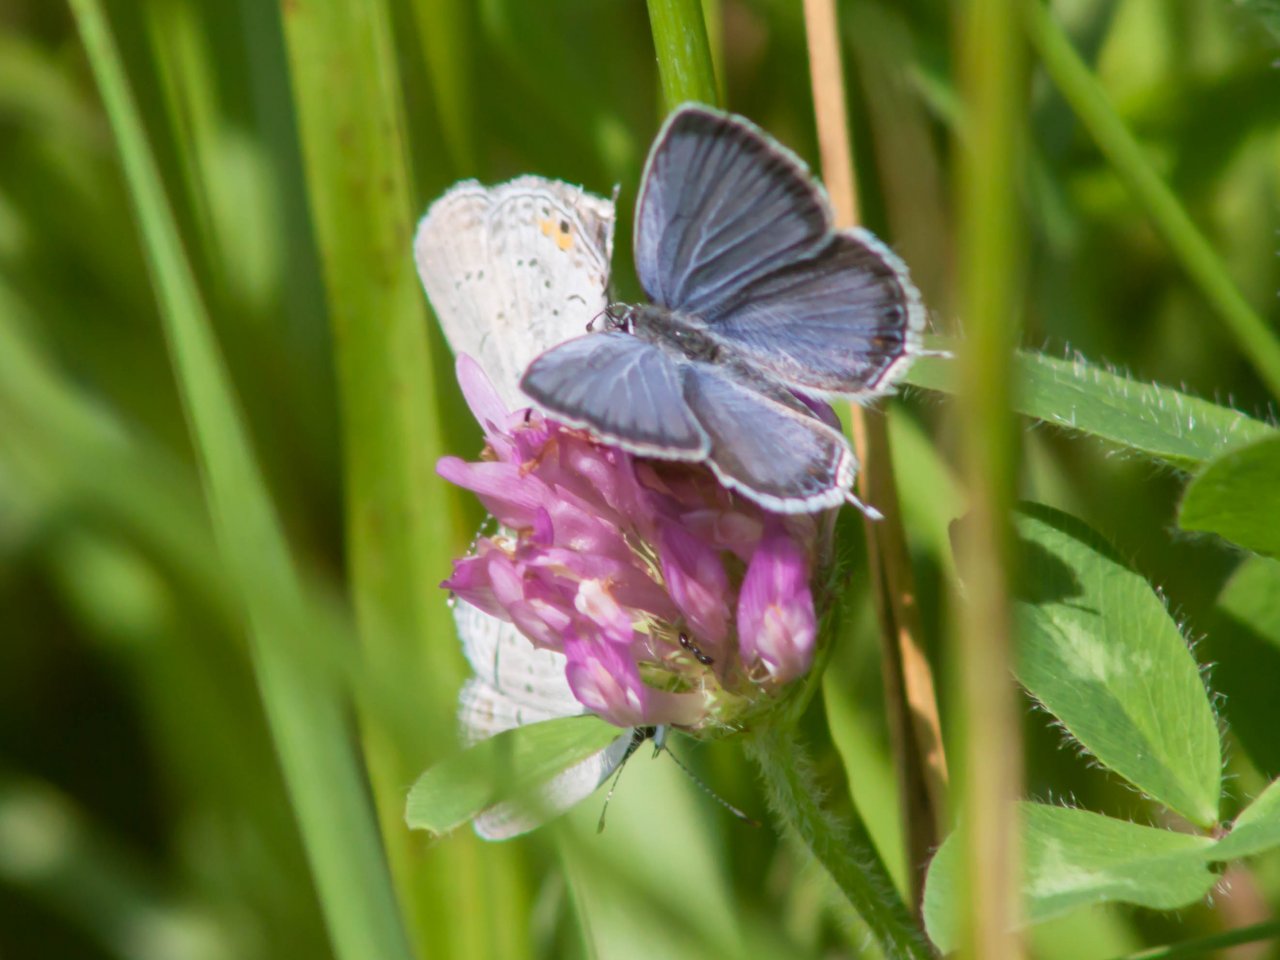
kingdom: Animalia
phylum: Arthropoda
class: Insecta
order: Lepidoptera
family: Lycaenidae
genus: Elkalyce
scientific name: Elkalyce comyntas
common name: Eastern Tailed-Blue
